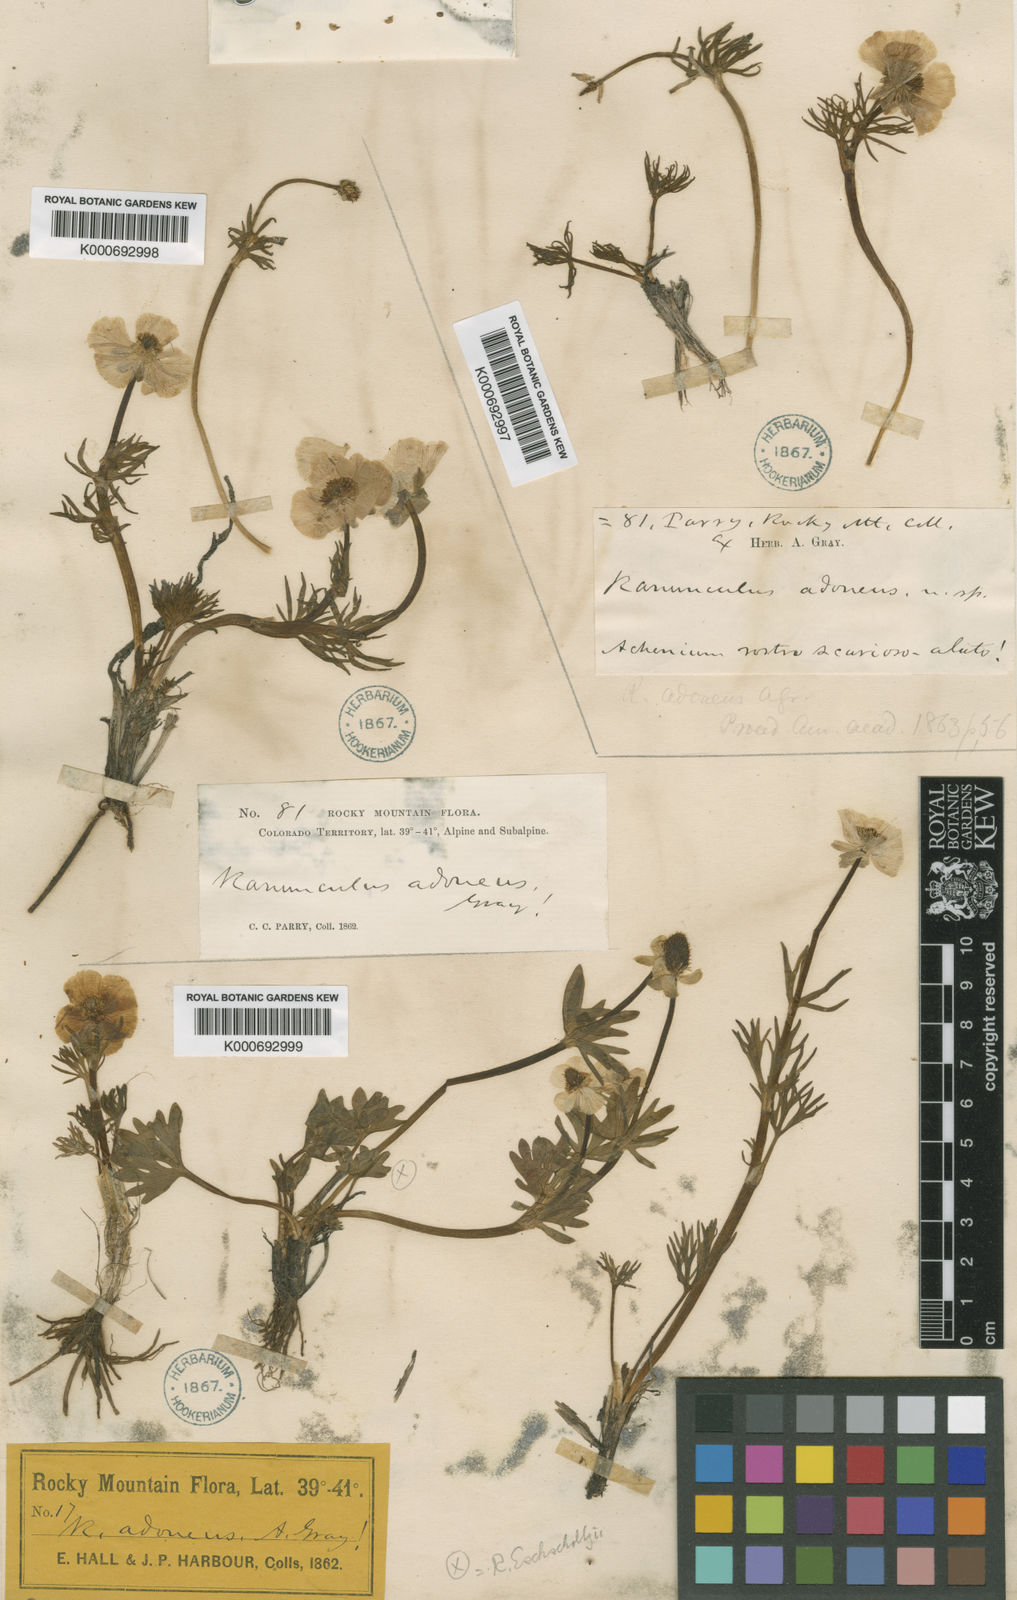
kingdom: Plantae
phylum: Tracheophyta
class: Magnoliopsida
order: Ranunculales
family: Ranunculaceae
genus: Ranunculus
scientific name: Ranunculus
